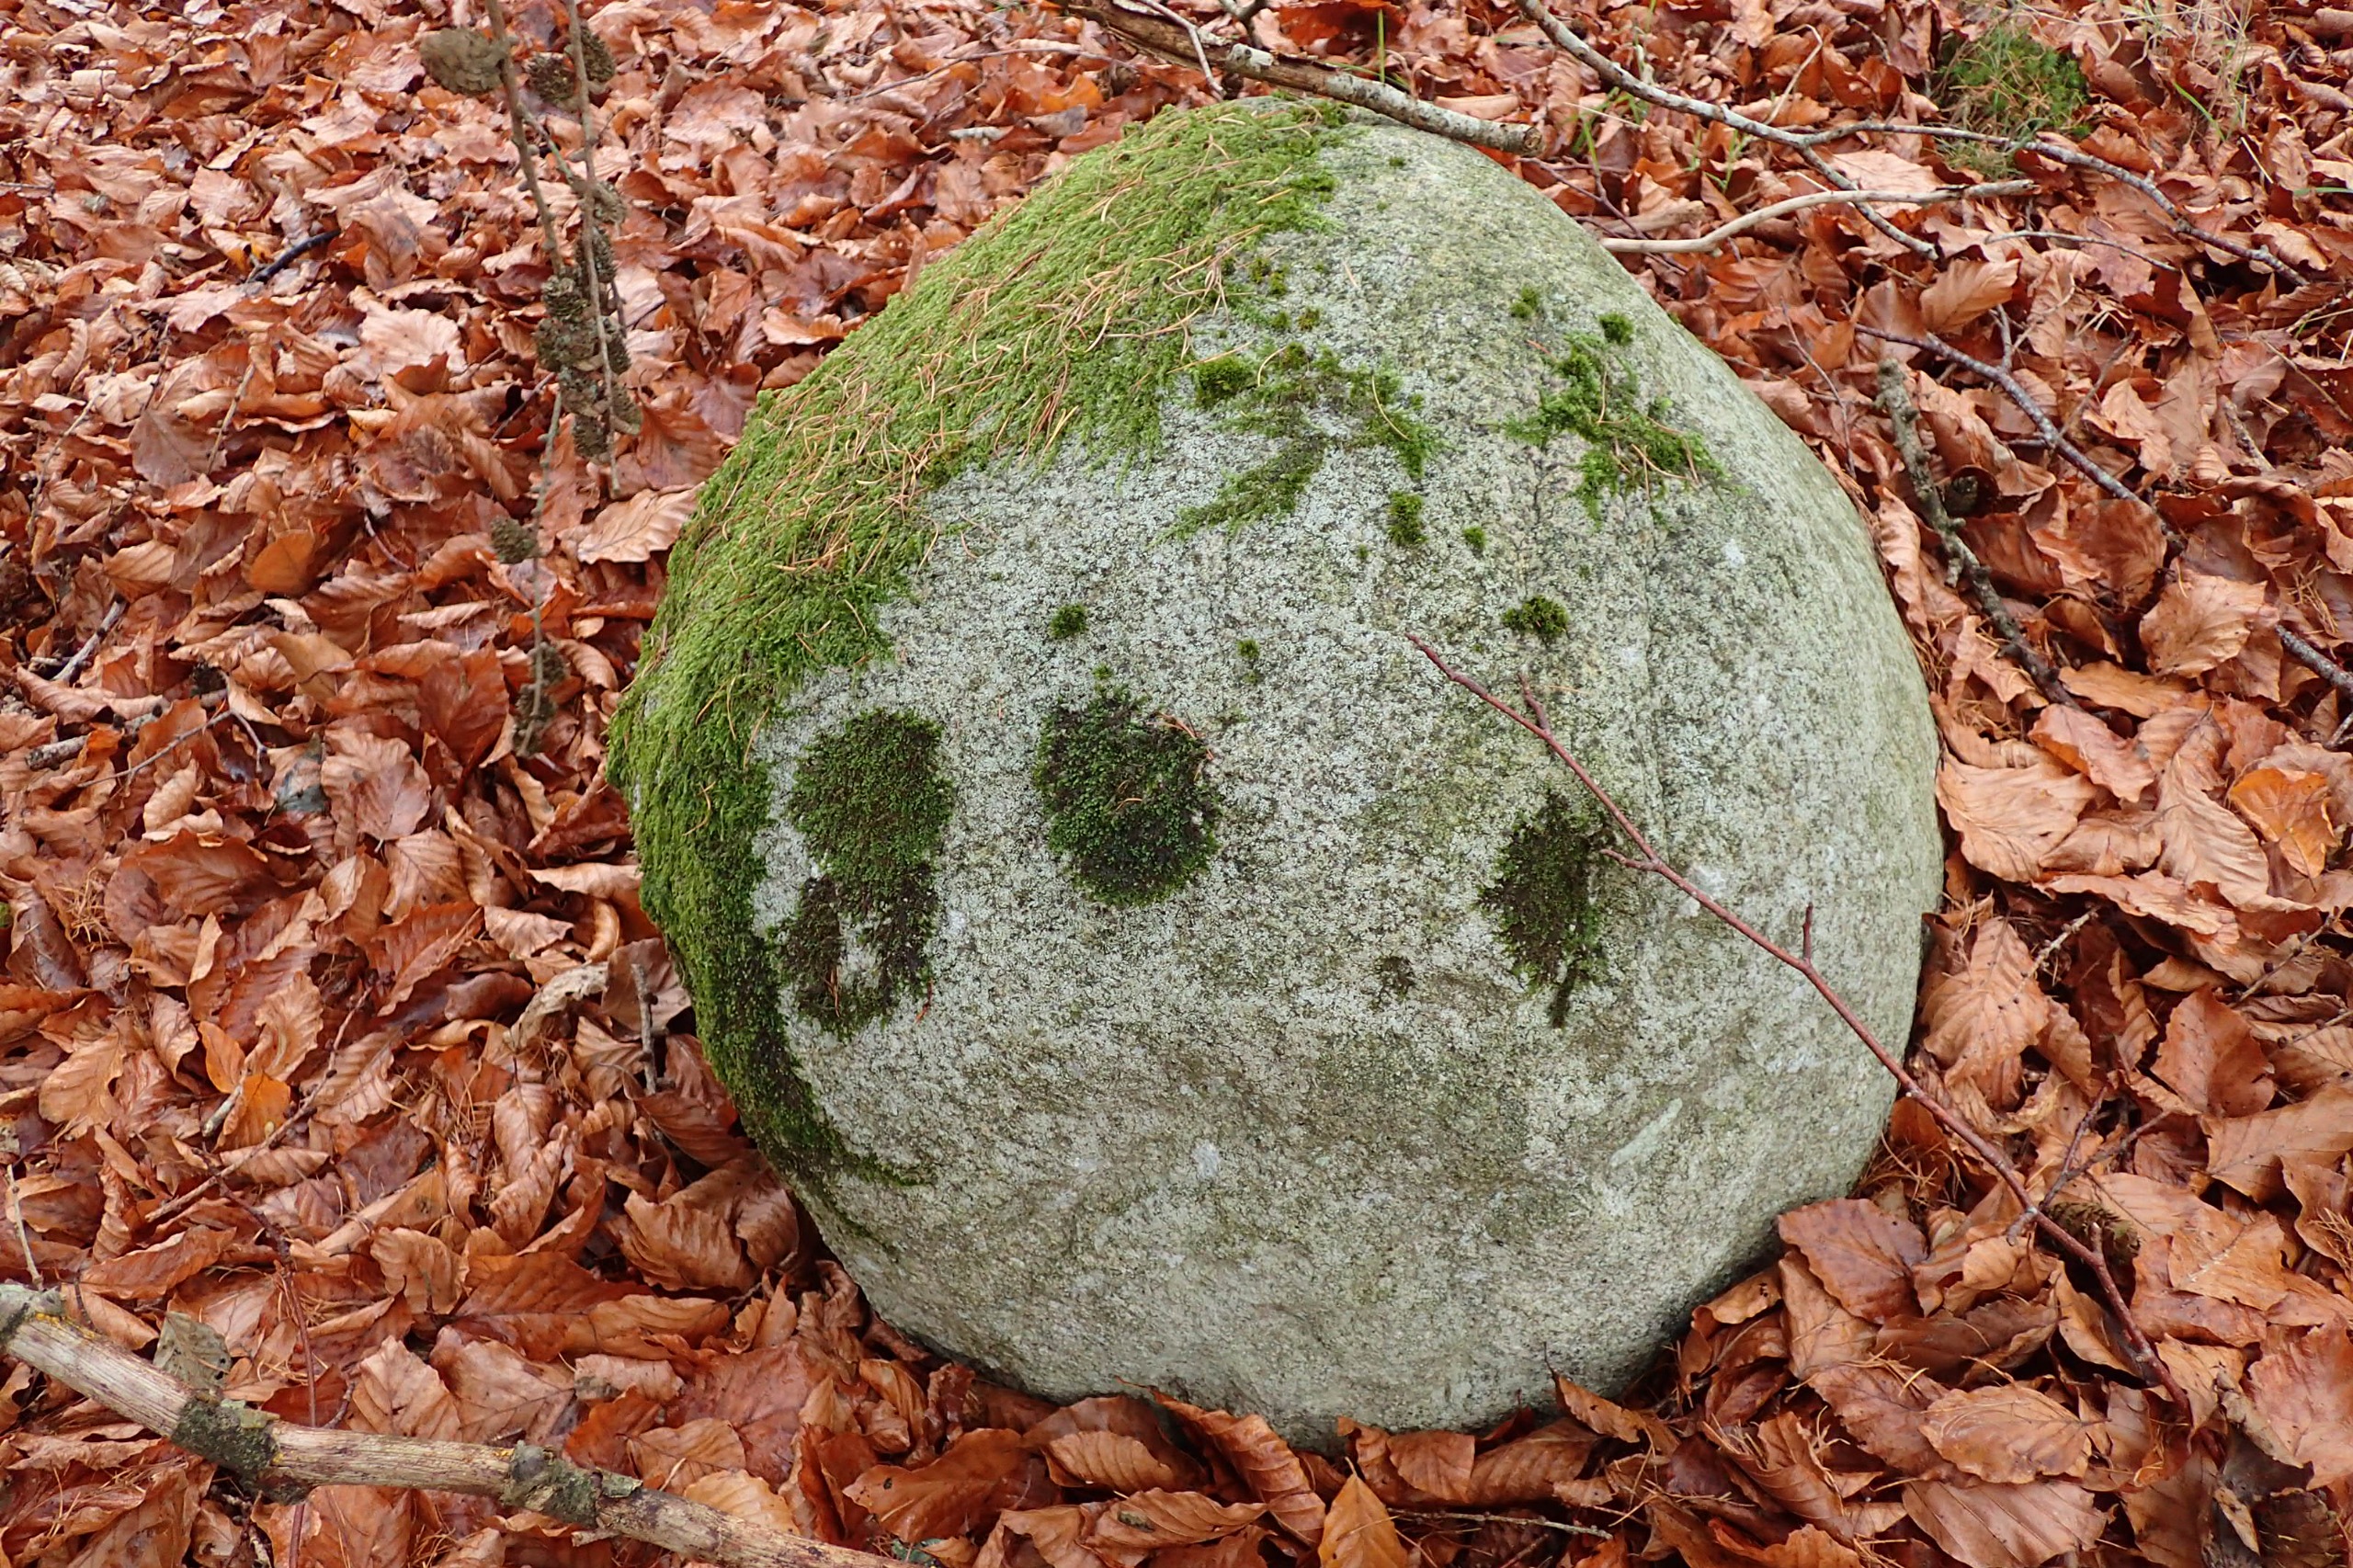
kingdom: Plantae
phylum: Marchantiophyta
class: Jungermanniopsida
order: Porellales
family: Frullaniaceae
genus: Frullania
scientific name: Frullania dilatata
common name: Mat bronzemos
